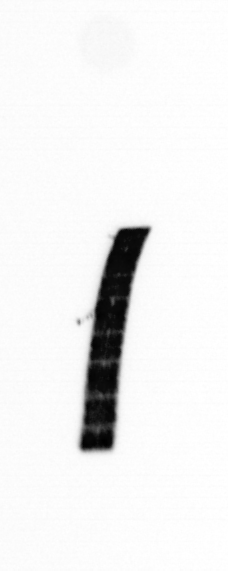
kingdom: Chromista
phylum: Ochrophyta
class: Bacillariophyceae
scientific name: Bacillariophyceae
